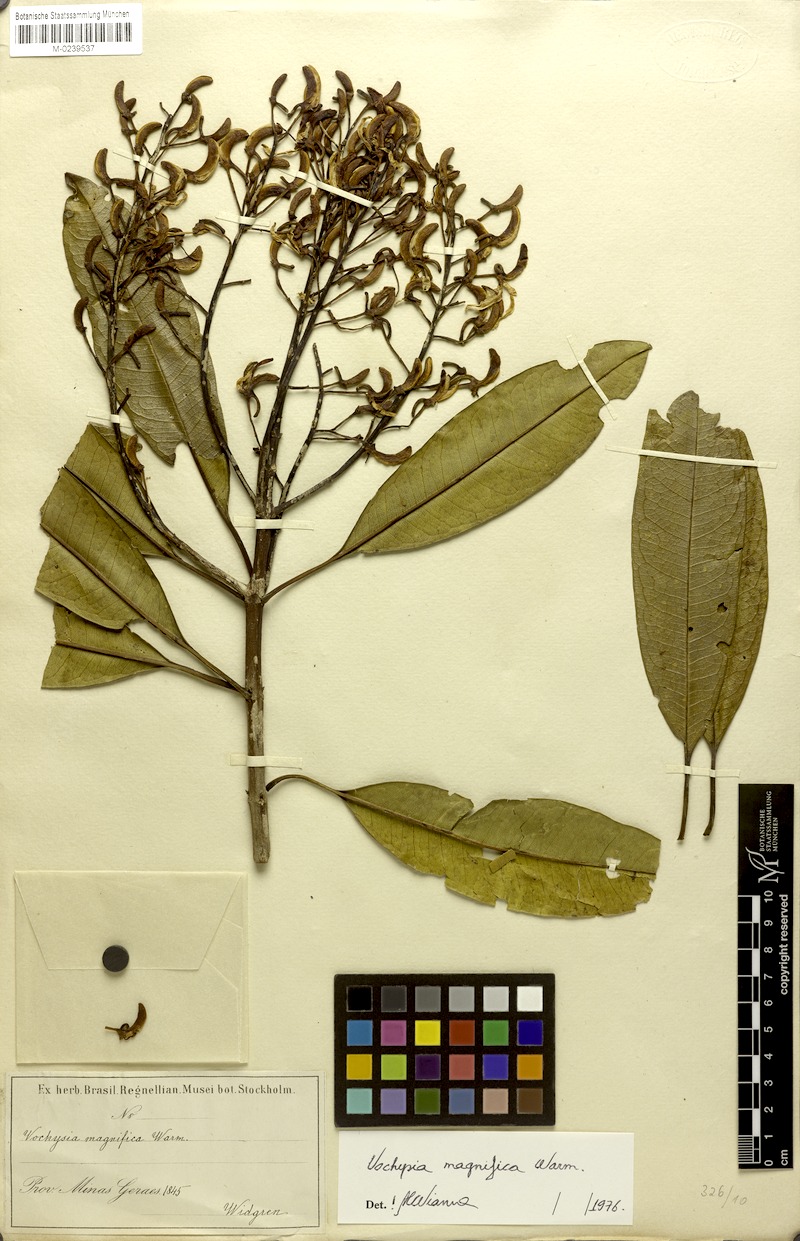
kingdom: Plantae
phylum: Tracheophyta
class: Magnoliopsida
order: Myrtales
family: Vochysiaceae
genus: Vochysia
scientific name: Vochysia magnifica
